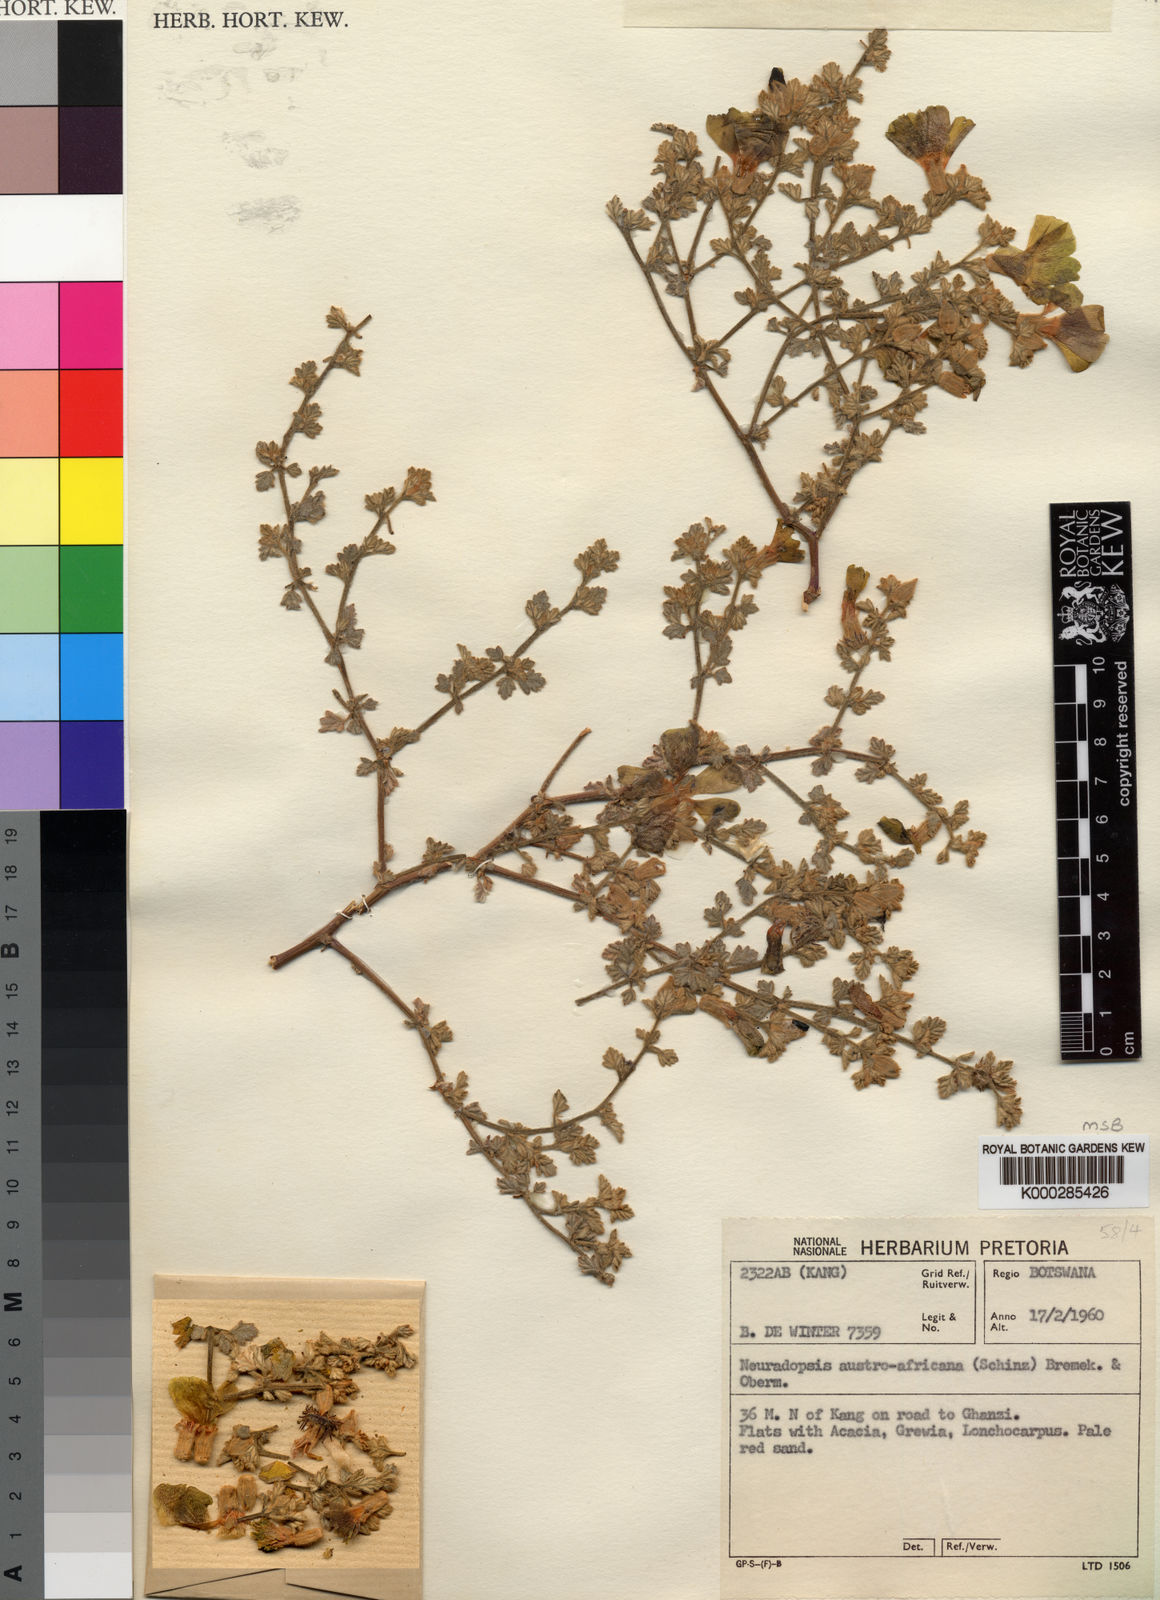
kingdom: Plantae
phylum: Tracheophyta
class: Magnoliopsida
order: Malvales
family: Neuradaceae
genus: Neuradopsis
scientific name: Neuradopsis bechuanensis
